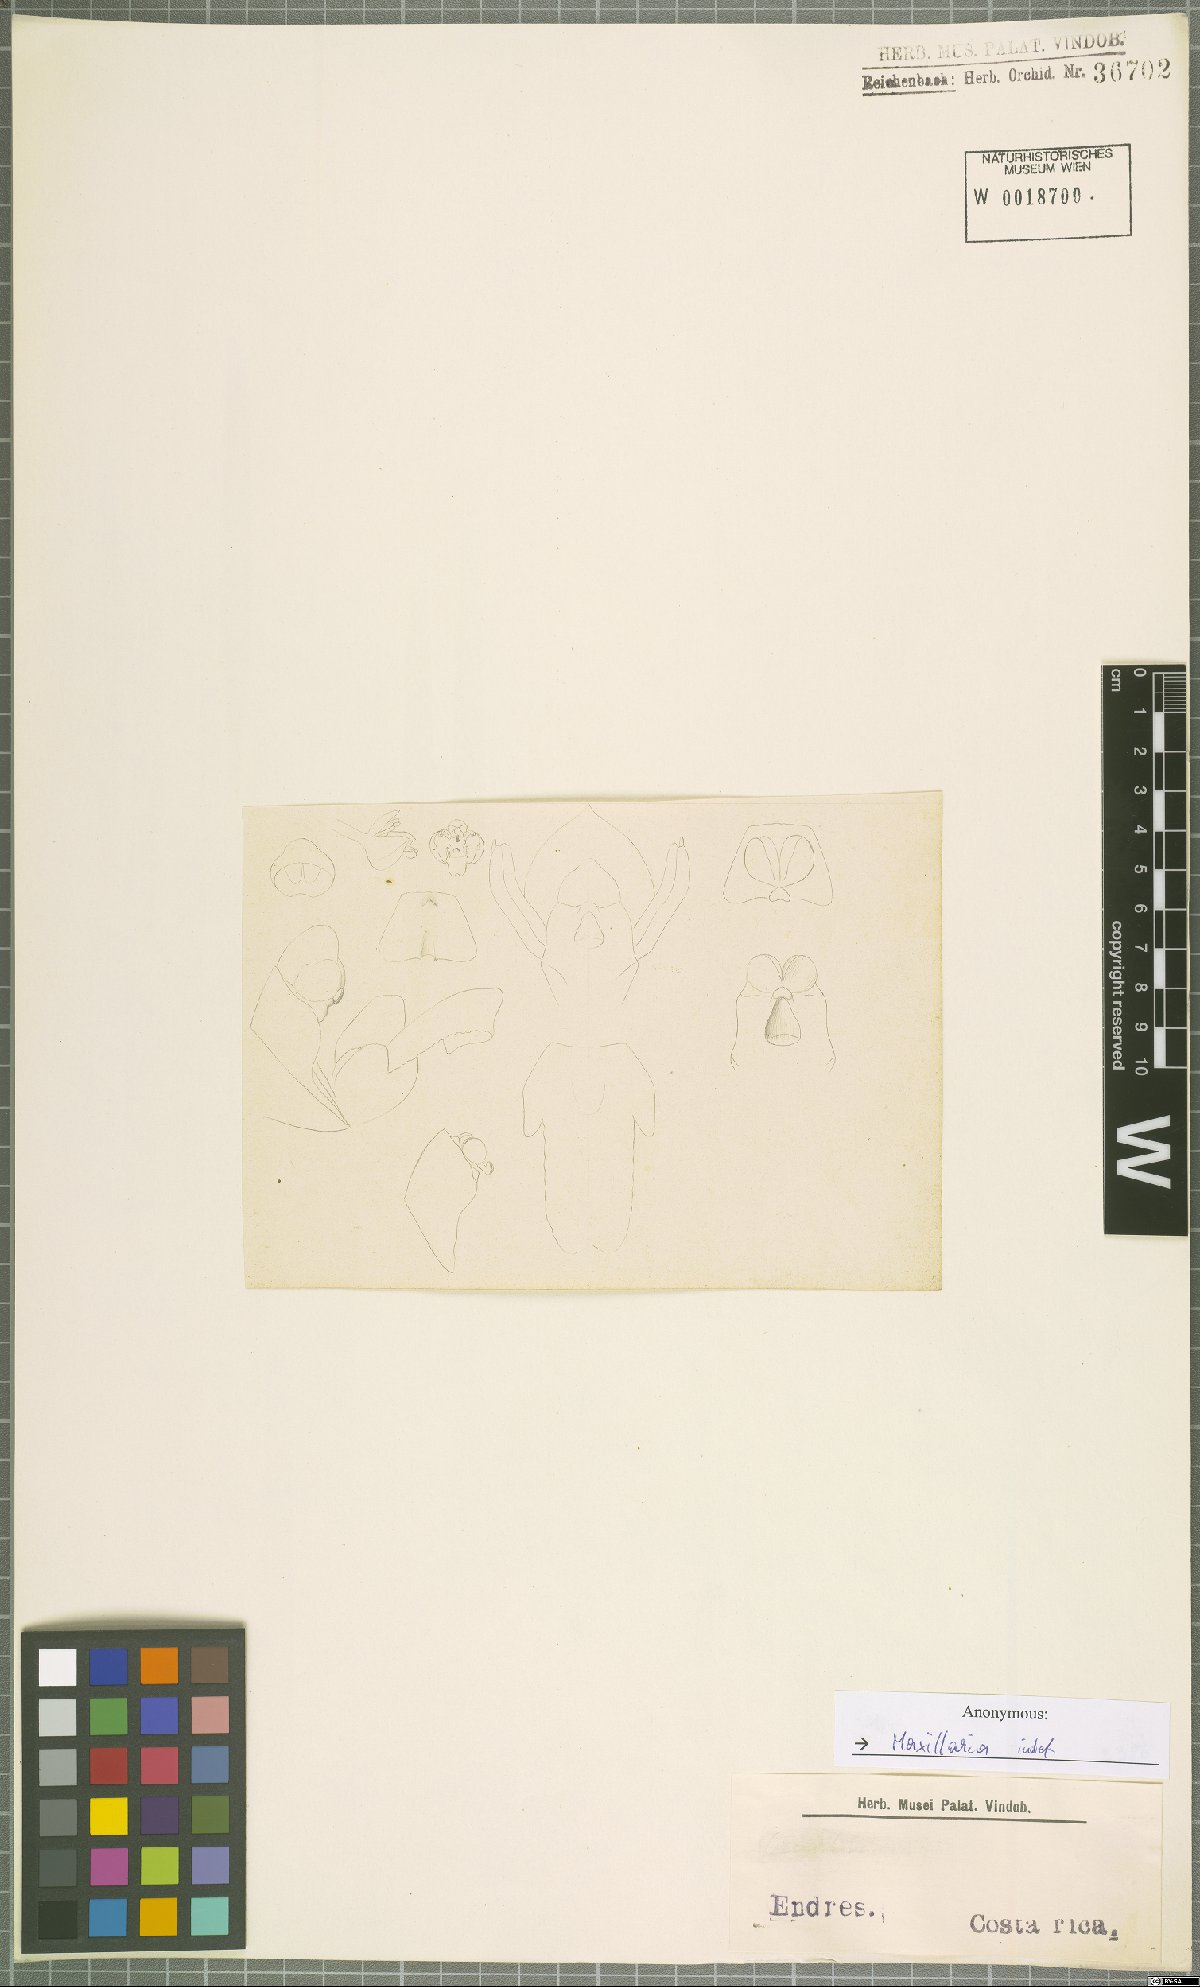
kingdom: Plantae
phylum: Tracheophyta
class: Liliopsida
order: Asparagales
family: Orchidaceae
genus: Maxillaria
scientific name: Maxillaria
